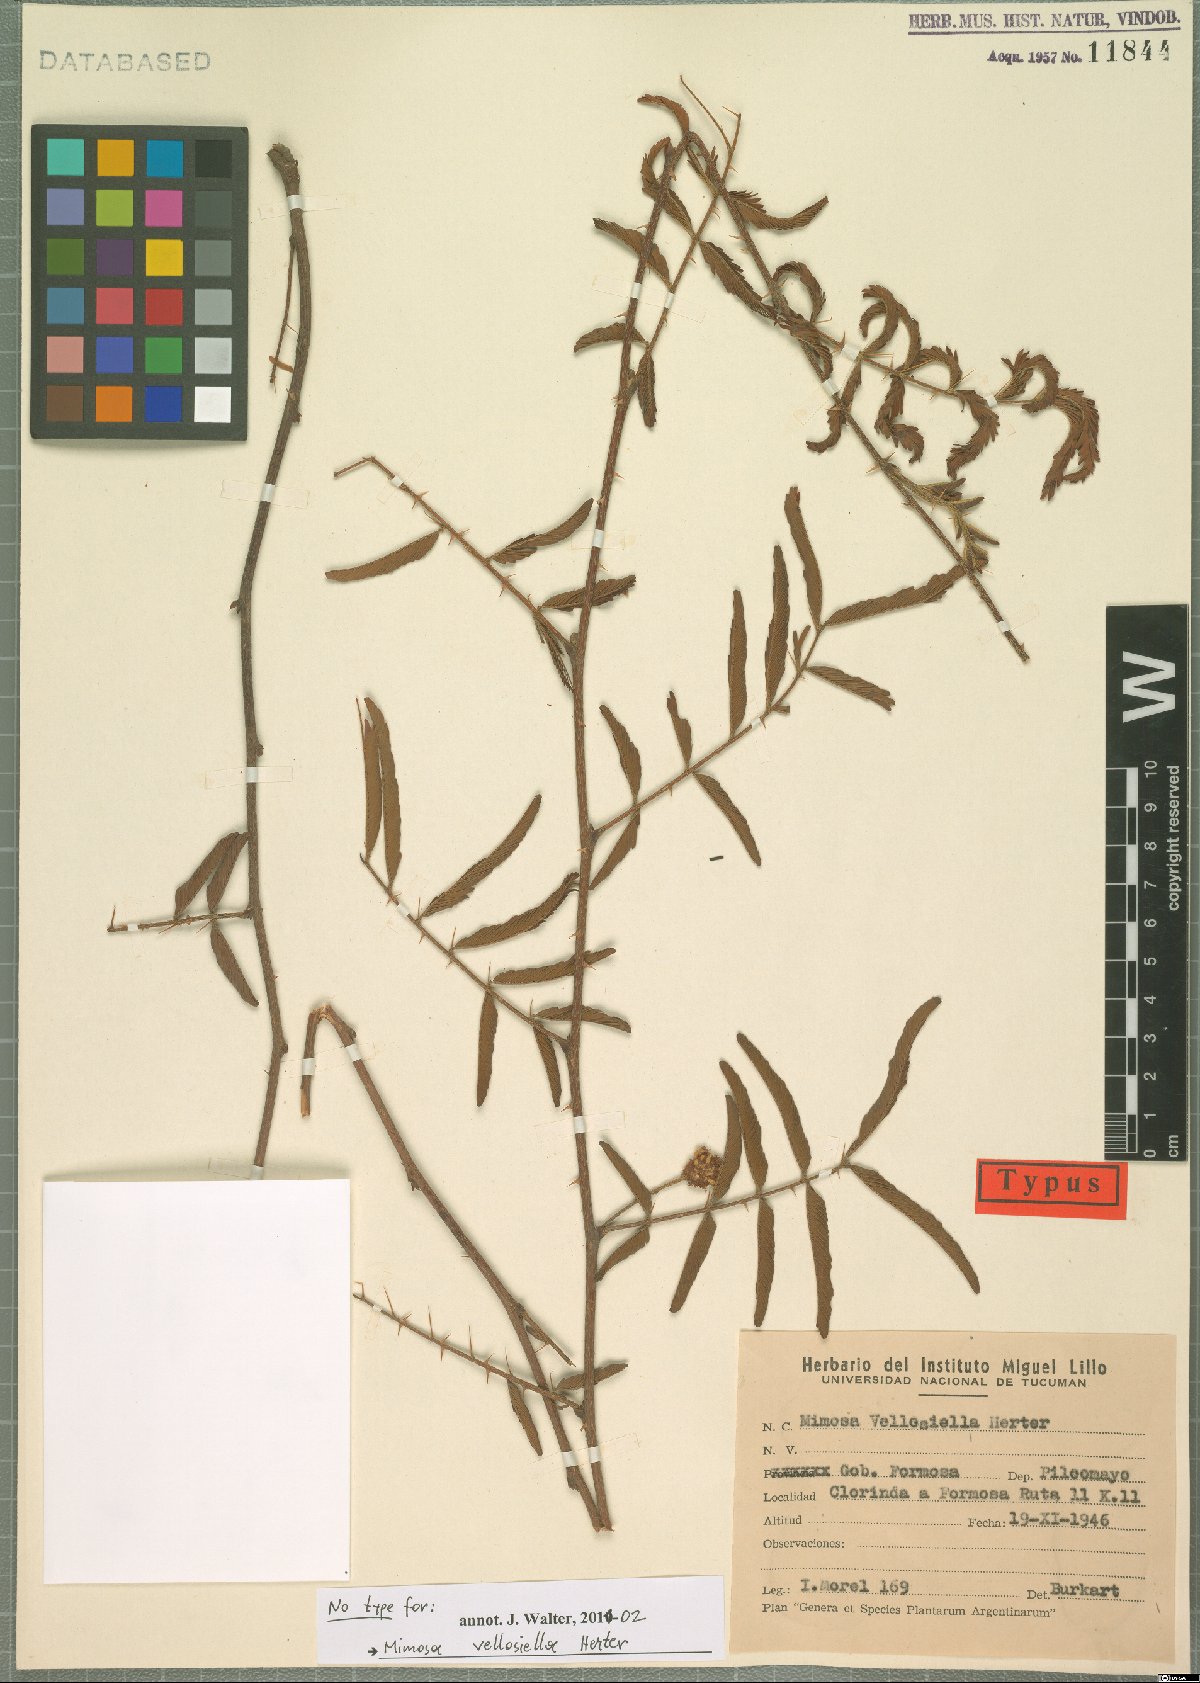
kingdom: Plantae
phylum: Tracheophyta
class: Magnoliopsida
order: Fabales
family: Fabaceae
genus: Mimosa
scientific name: Mimosa tweedieana
